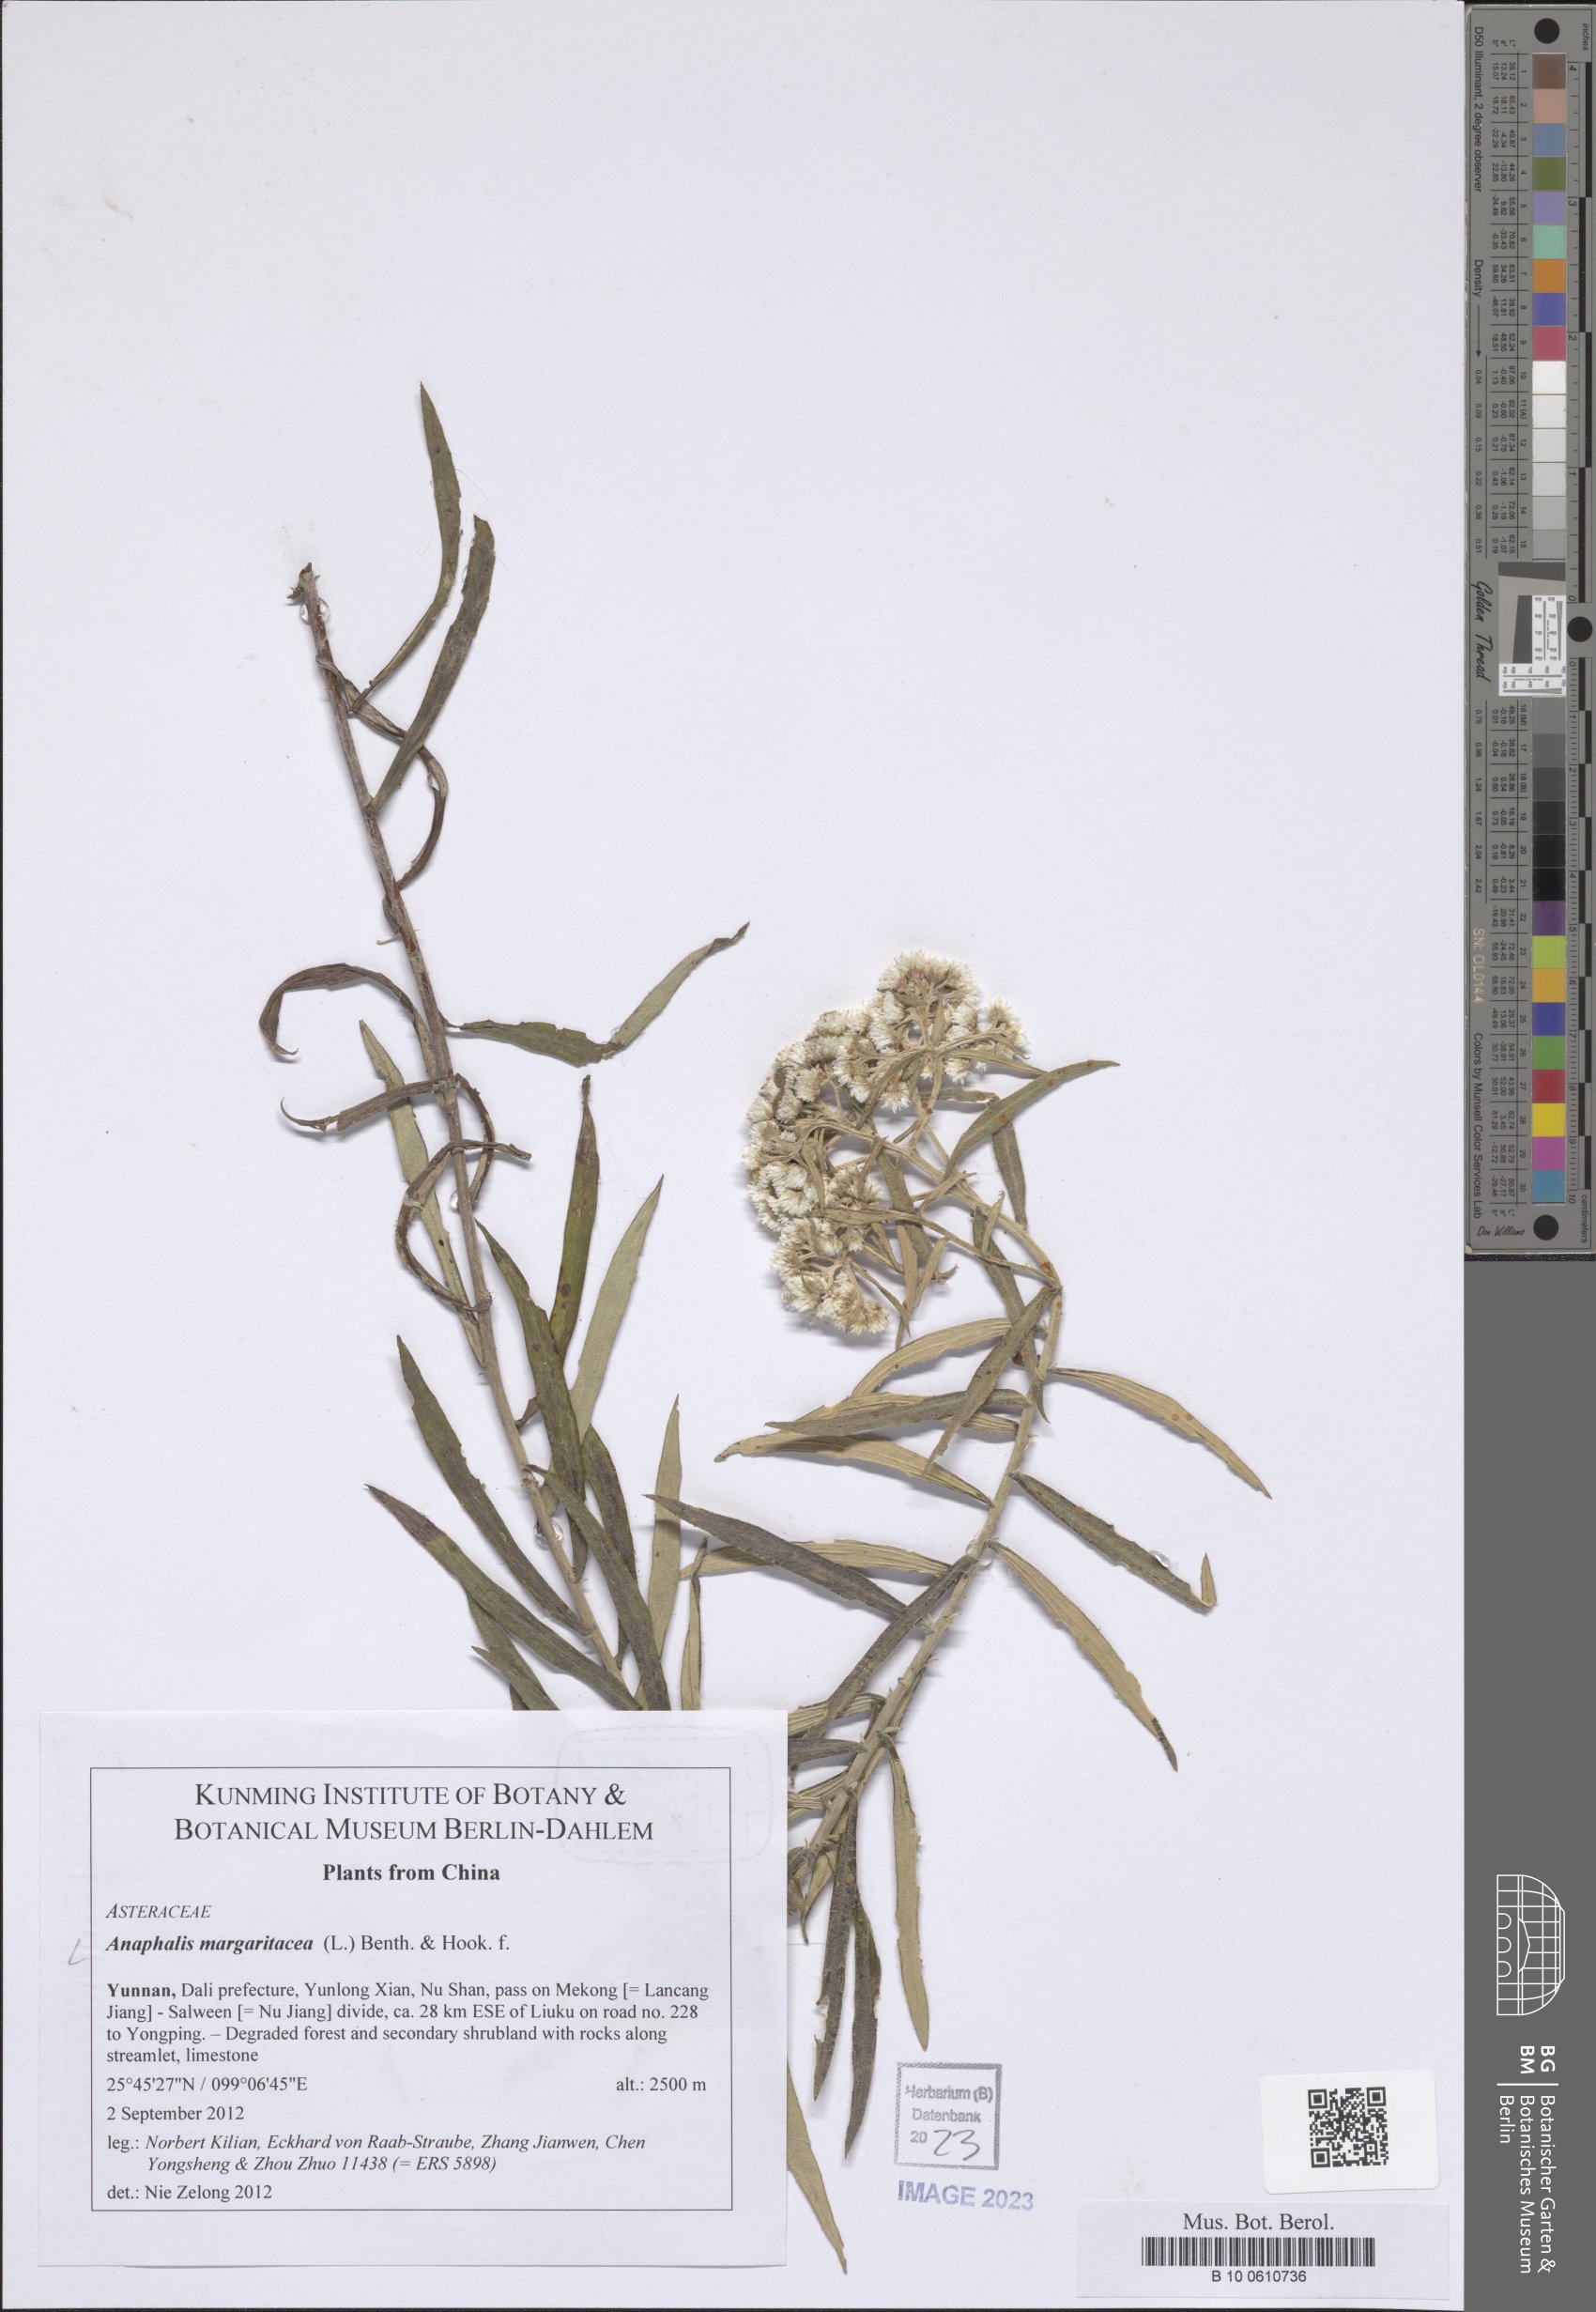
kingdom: Plantae
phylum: Tracheophyta
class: Magnoliopsida
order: Asterales
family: Asteraceae
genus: Anaphalis
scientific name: Anaphalis margaritacea
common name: Pearly everlasting
